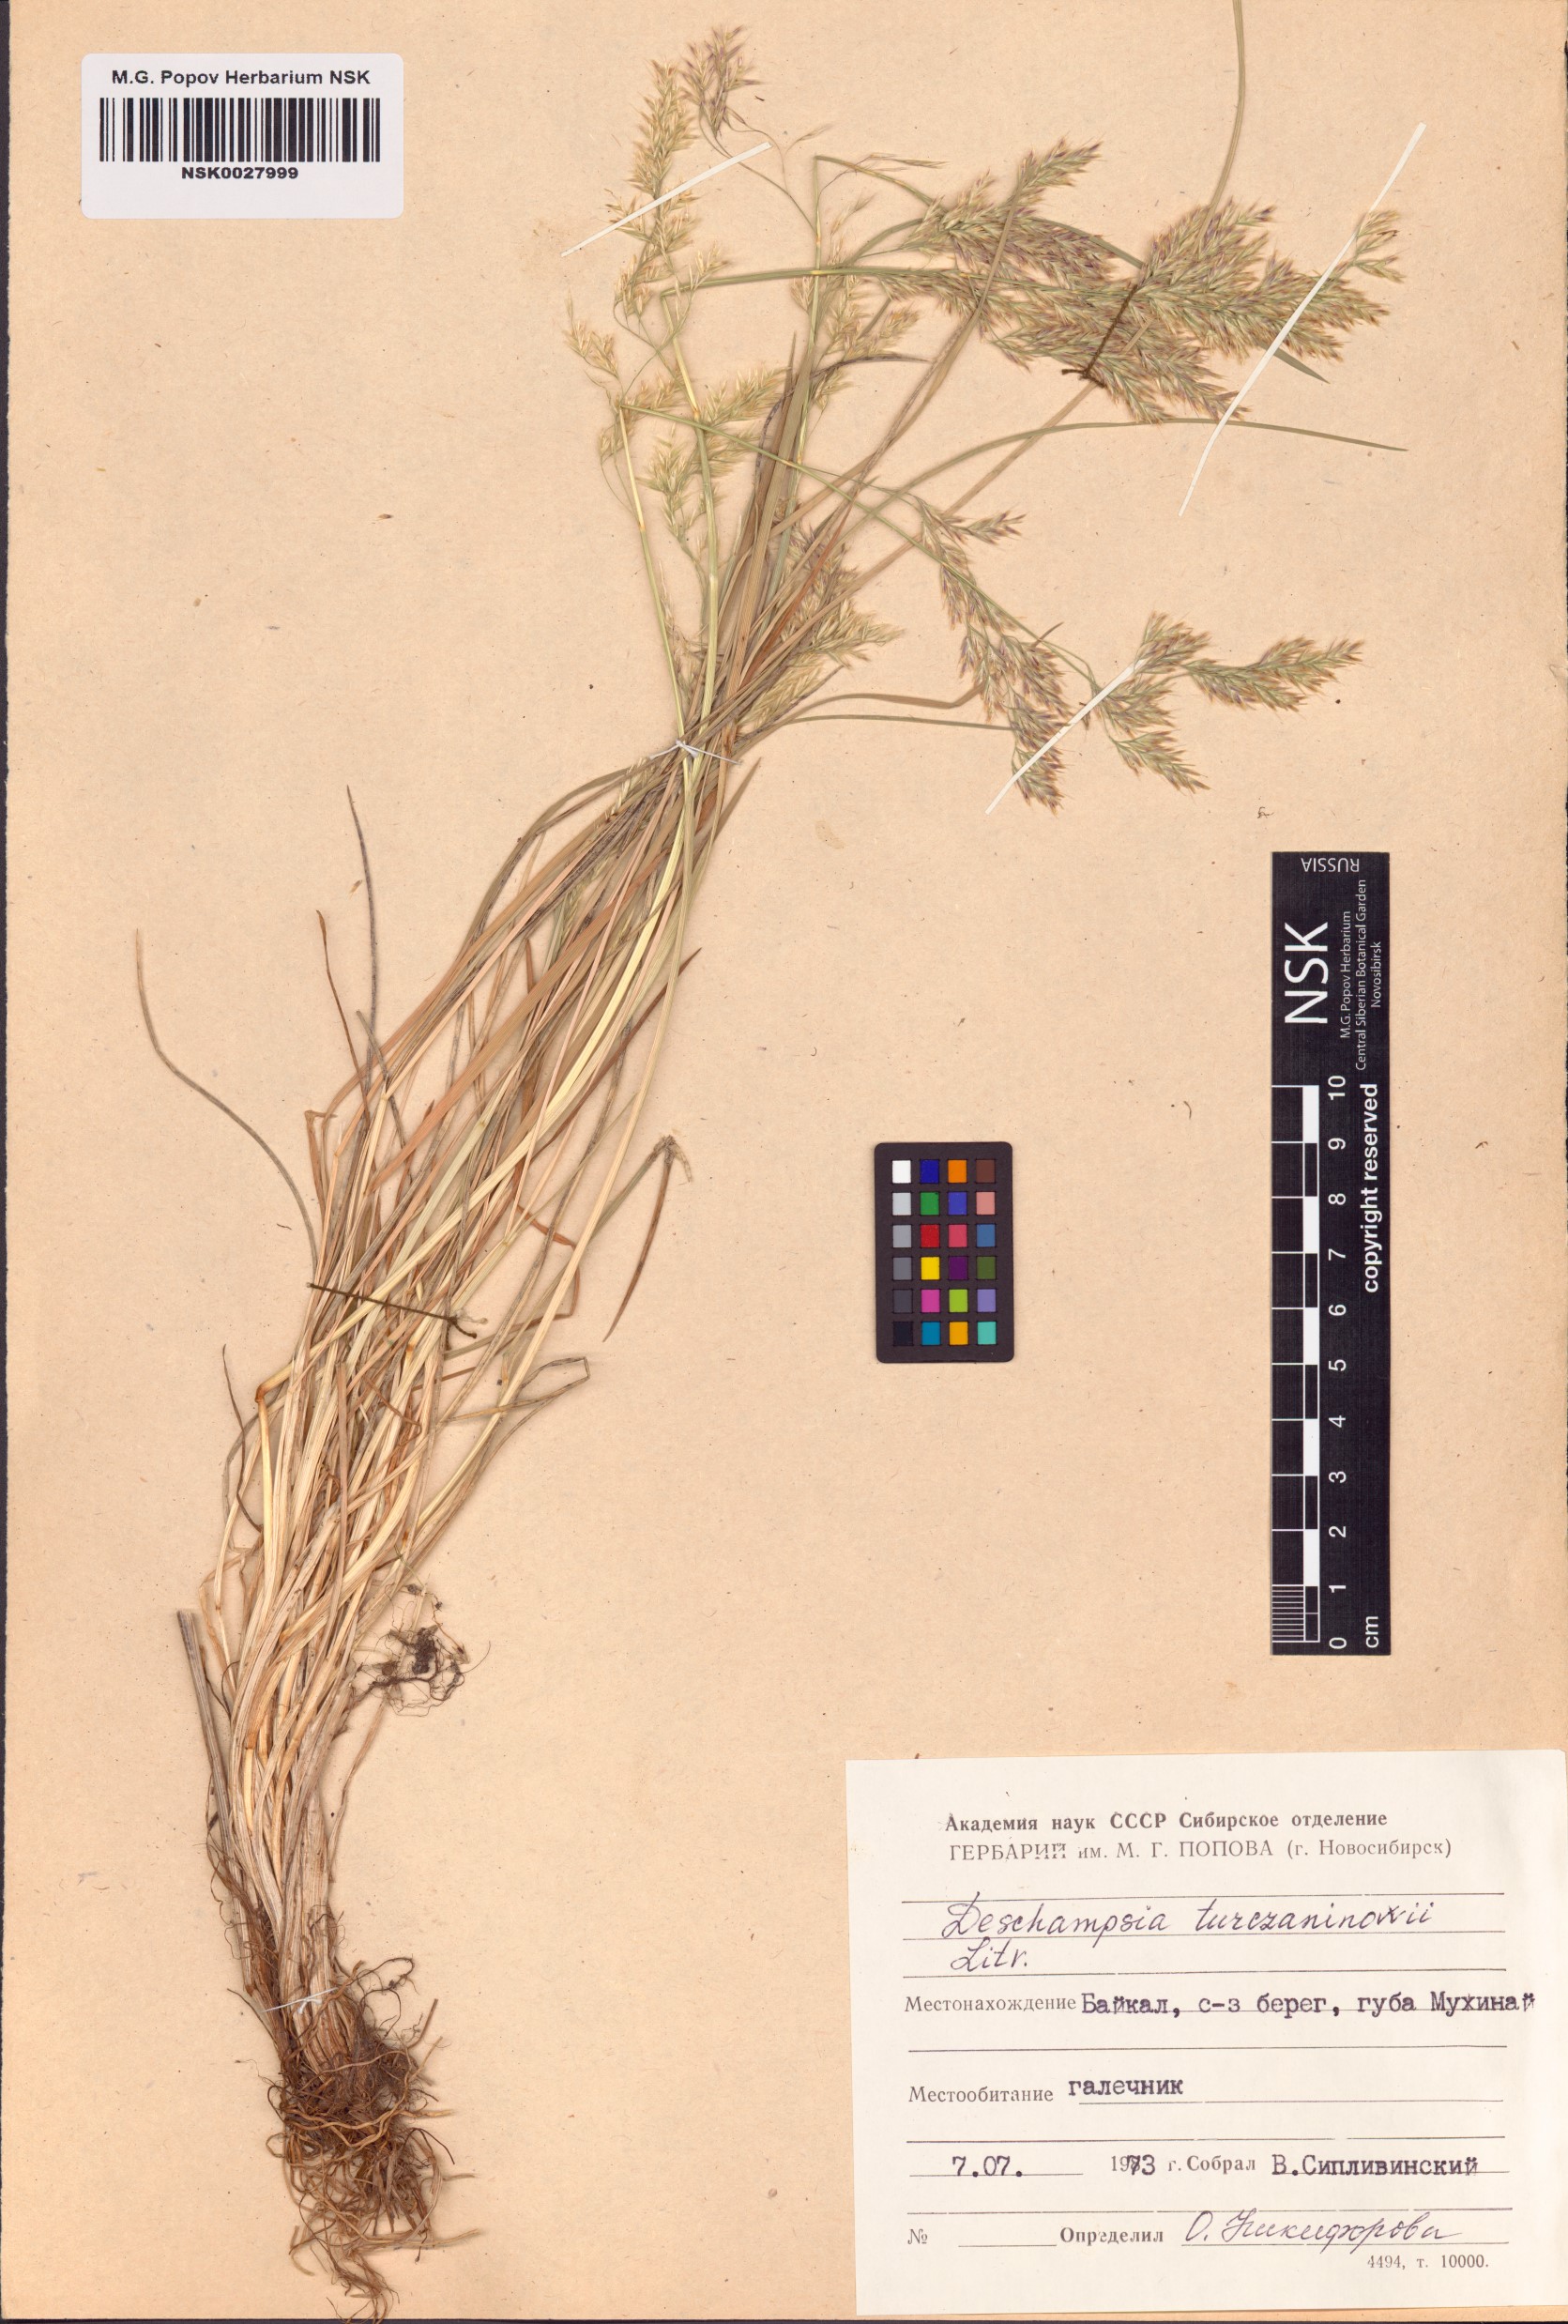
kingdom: Plantae
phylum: Tracheophyta
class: Liliopsida
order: Poales
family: Poaceae
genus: Deschampsia
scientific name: Deschampsia cespitosa
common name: Tufted hair-grass
